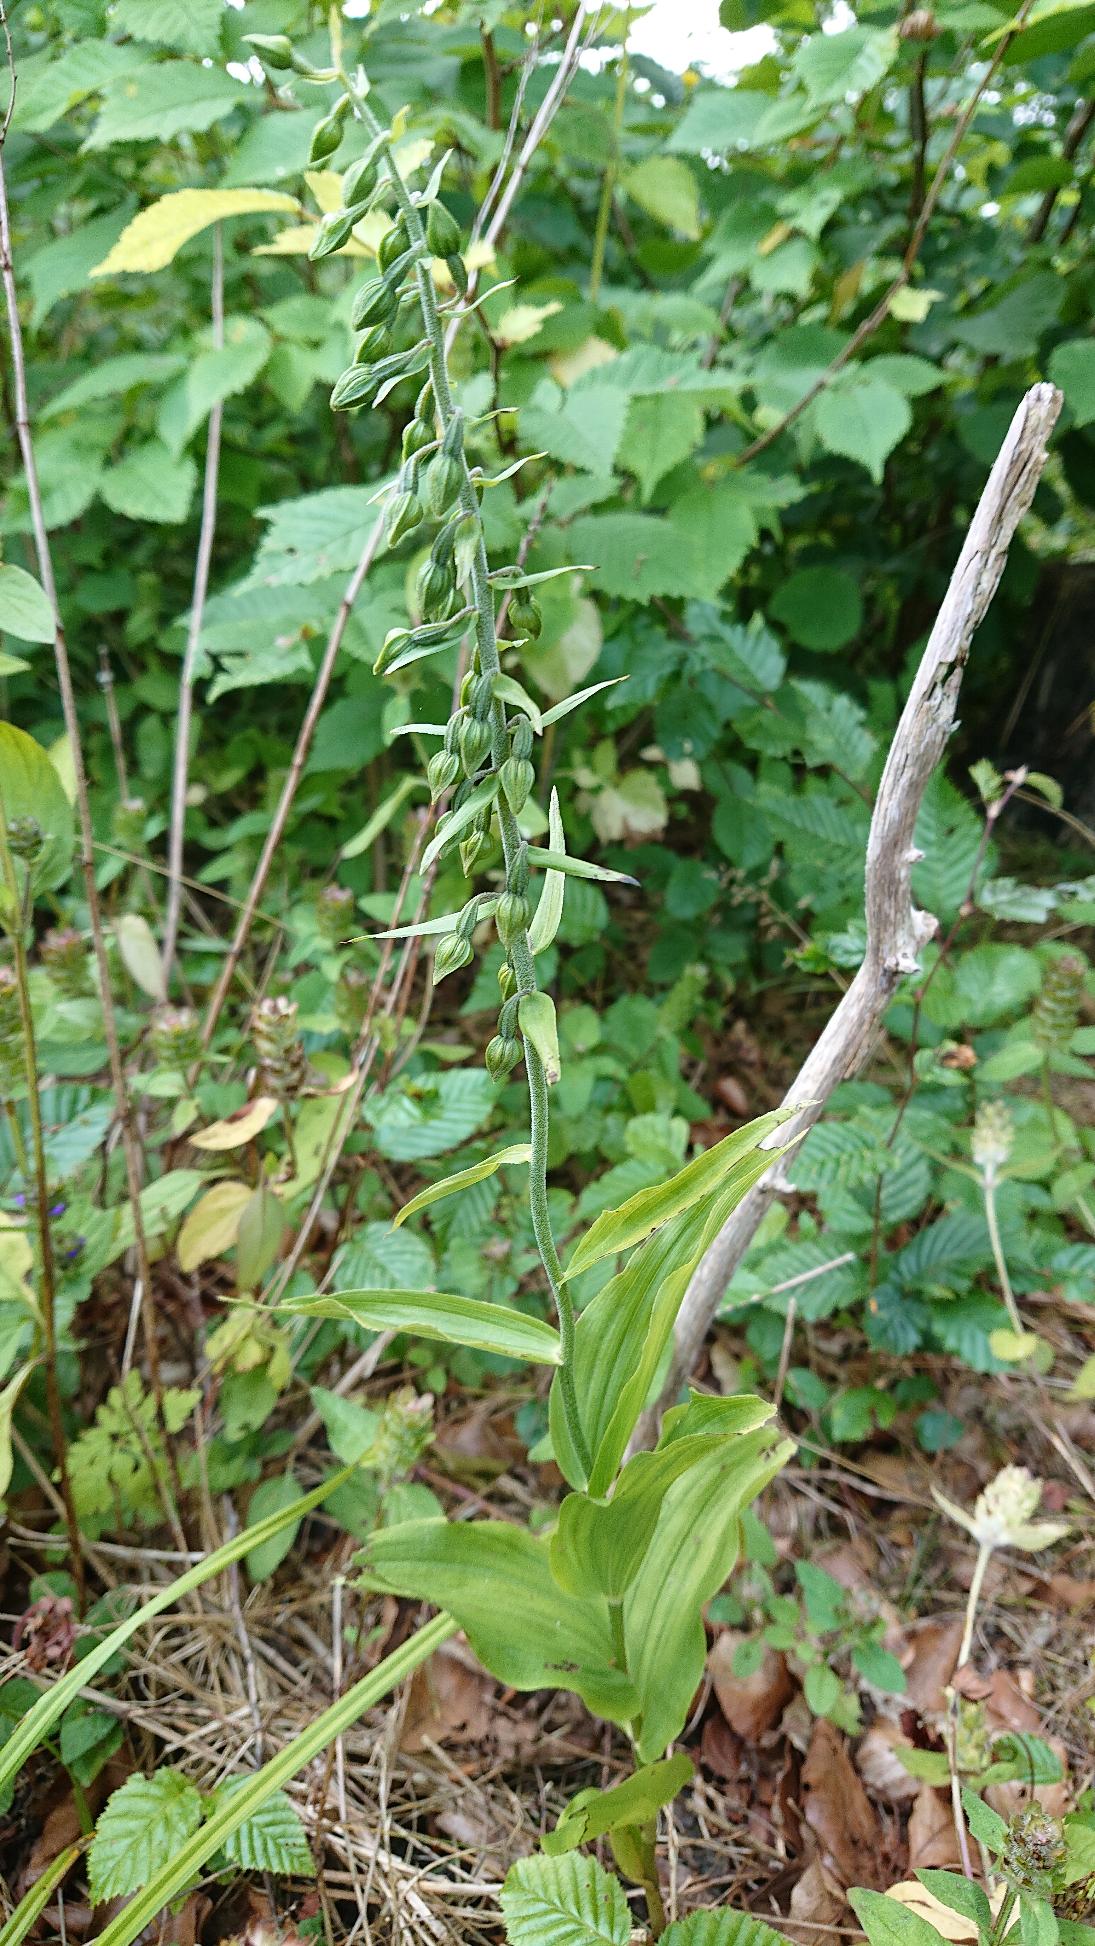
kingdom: Plantae
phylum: Tracheophyta
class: Liliopsida
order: Asparagales
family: Orchidaceae
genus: Epipactis
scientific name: Epipactis helleborine
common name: Skov-hullæbe
